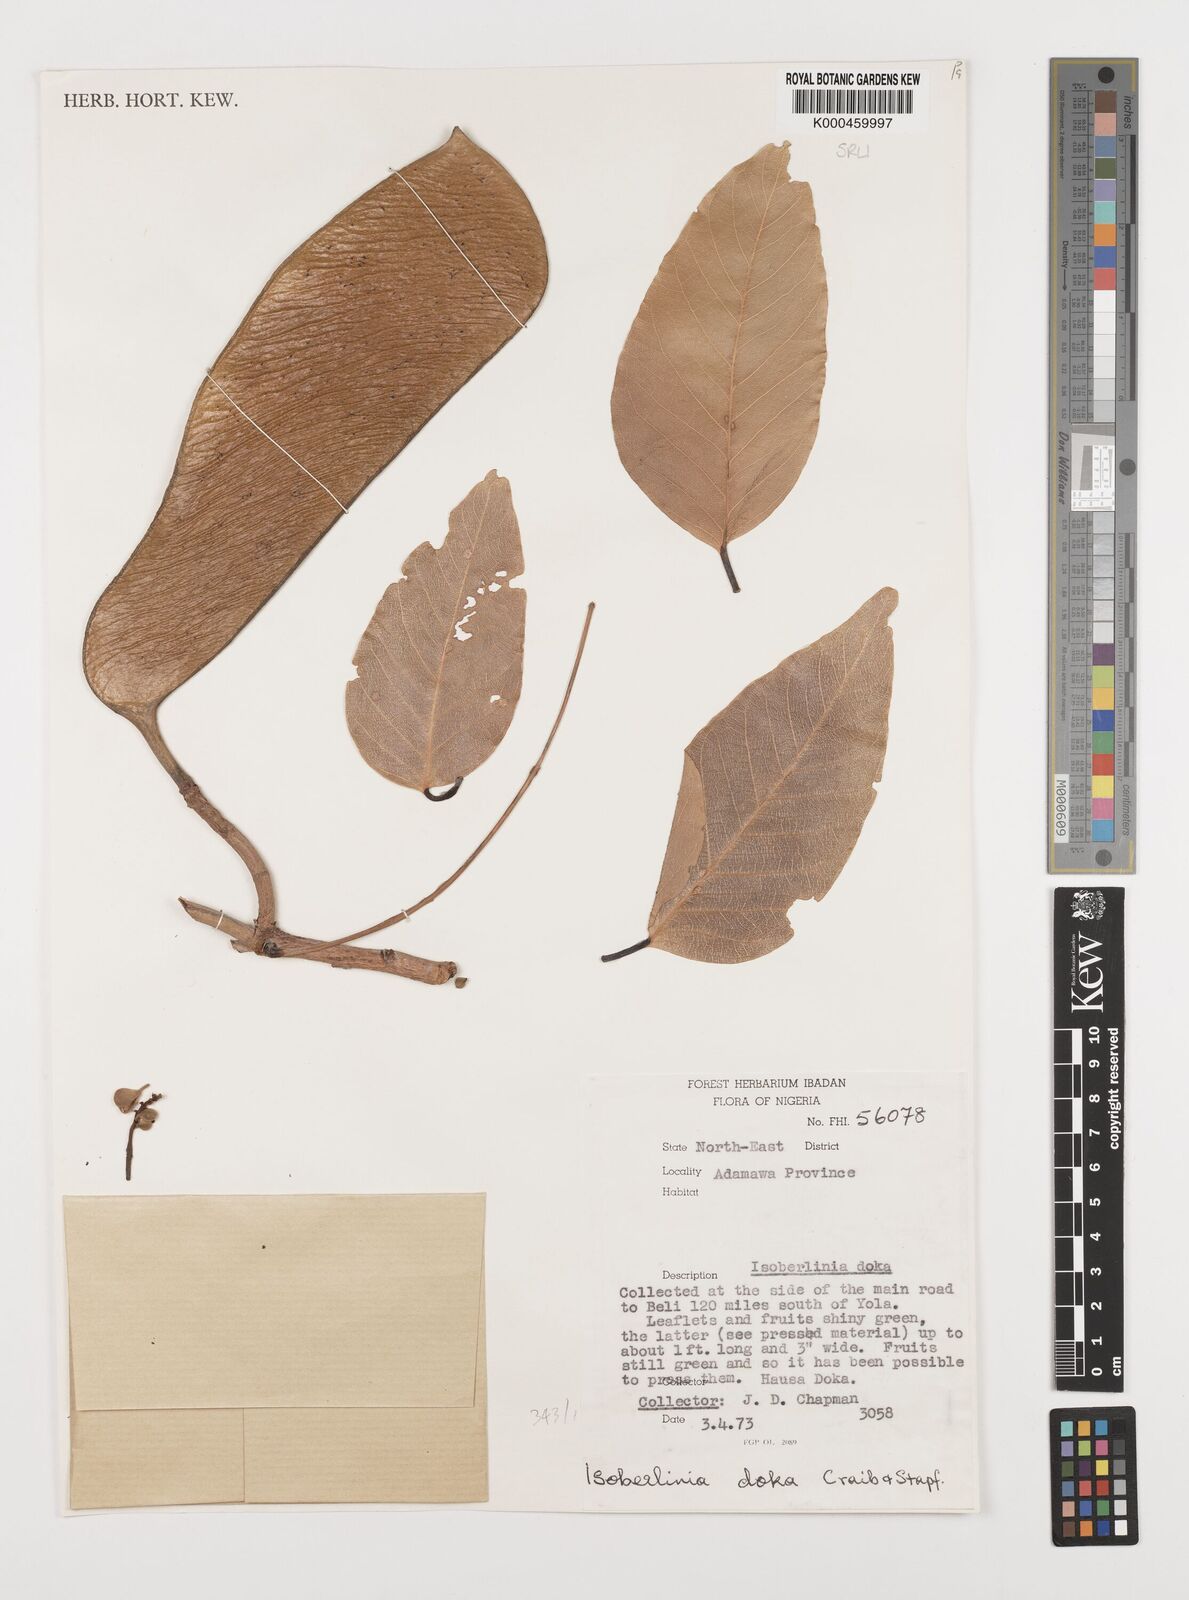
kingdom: Plantae
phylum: Tracheophyta
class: Magnoliopsida
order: Fabales
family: Fabaceae
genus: Isoberlinia
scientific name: Isoberlinia doka
